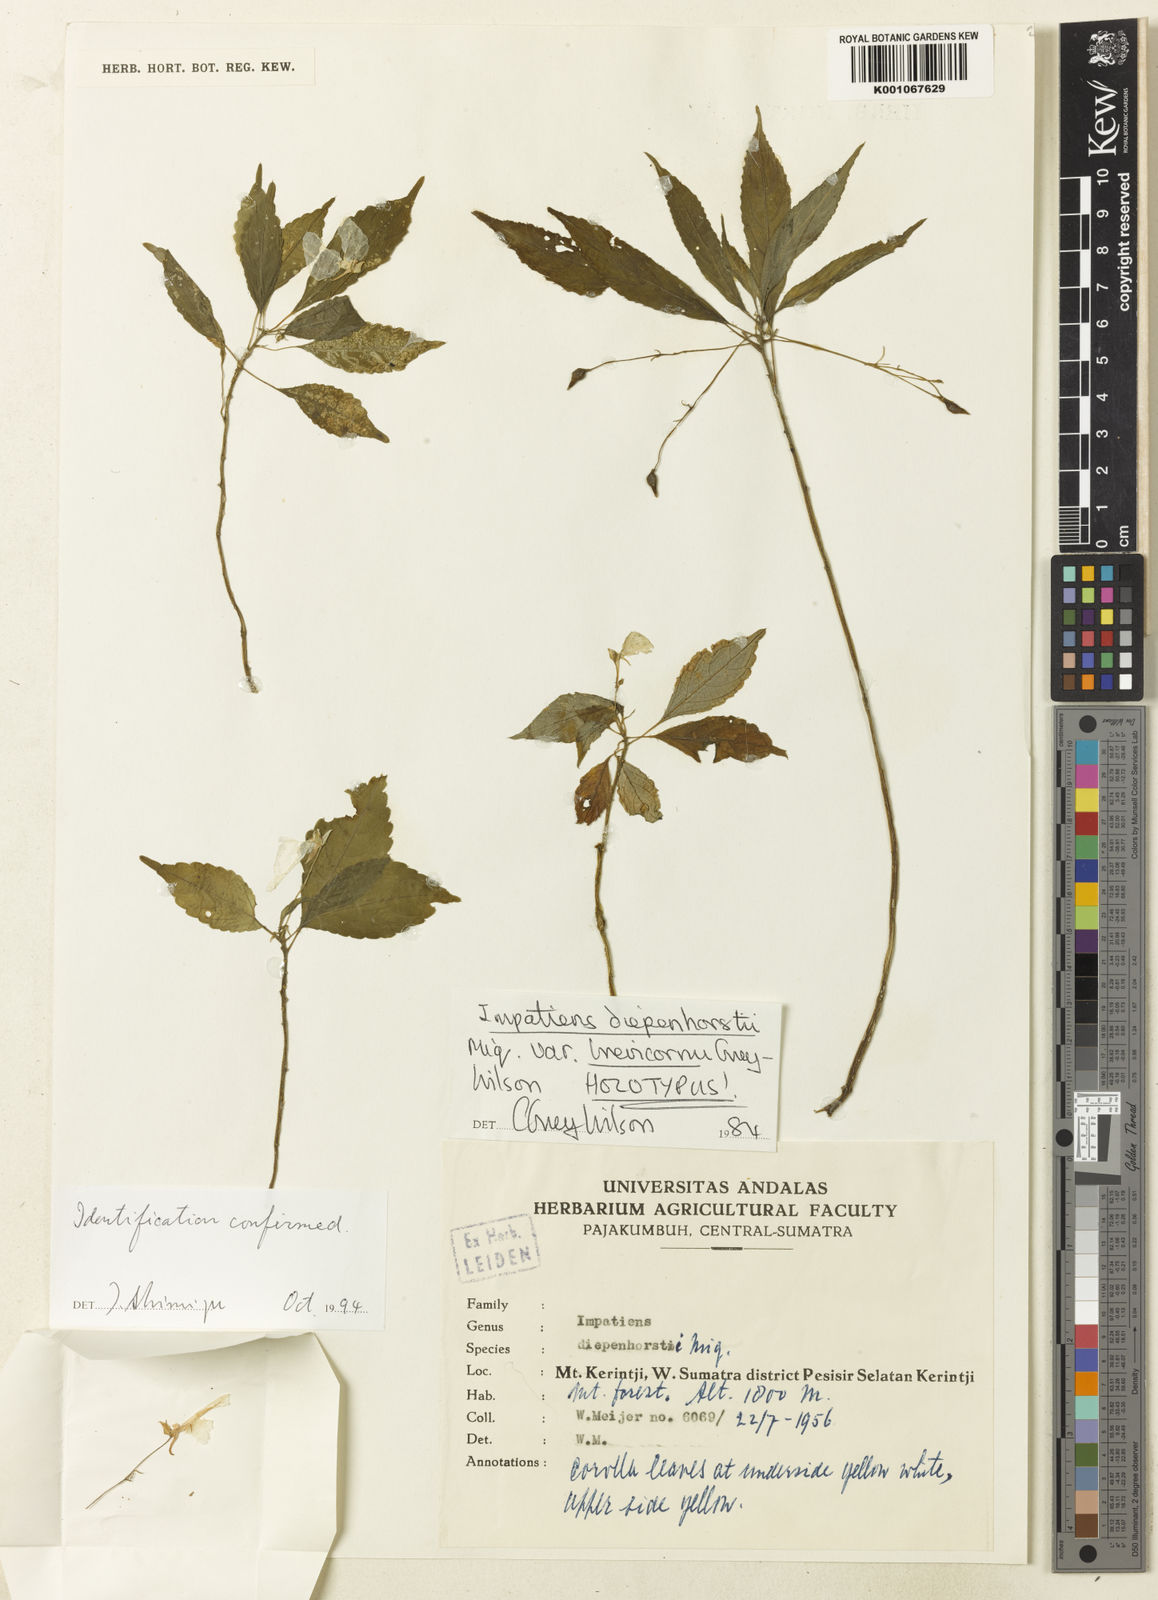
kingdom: Plantae
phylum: Tracheophyta
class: Magnoliopsida
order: Ericales
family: Balsaminaceae
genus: Impatiens
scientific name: Impatiens diepenhorstii
